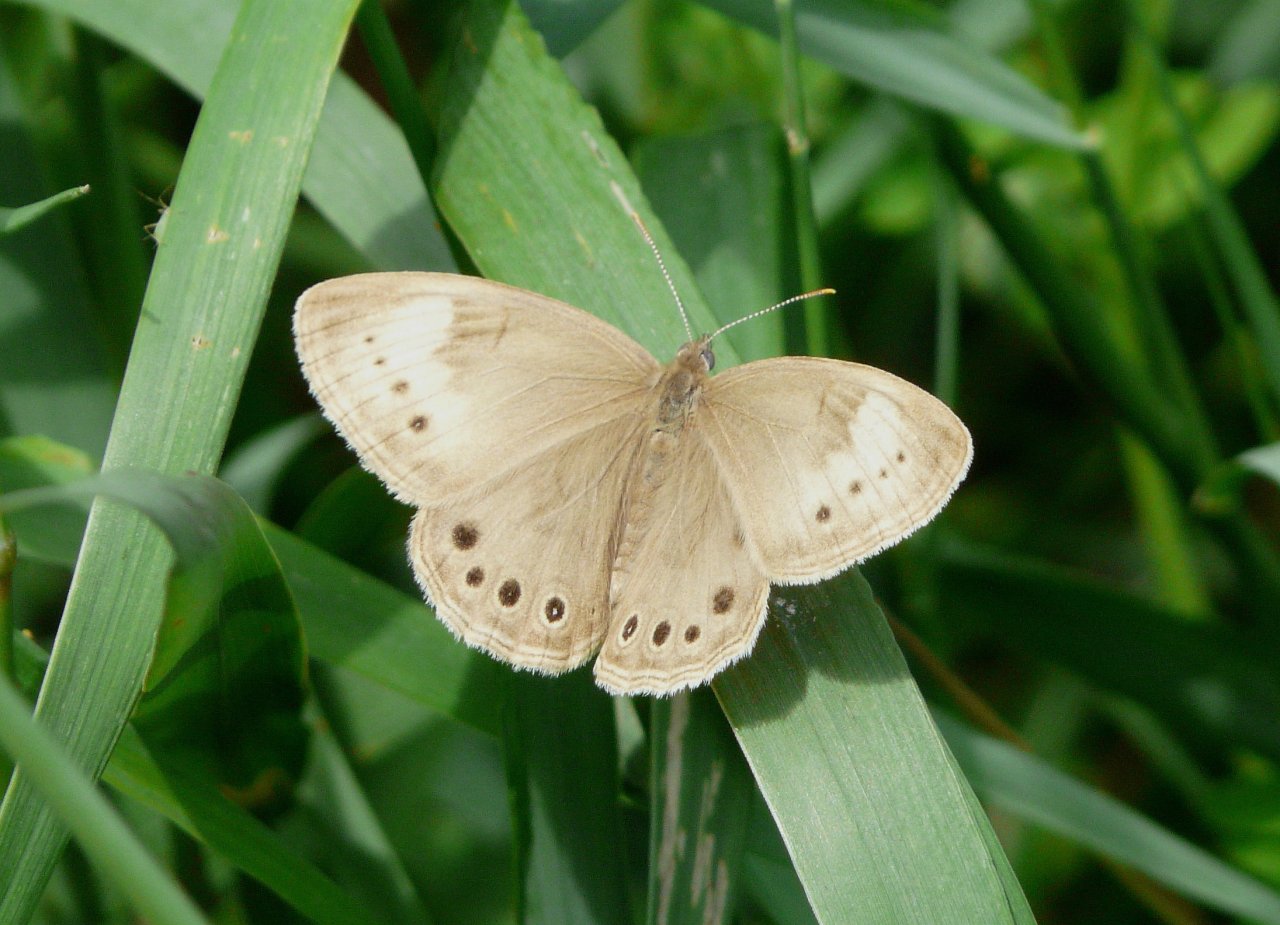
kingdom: Animalia
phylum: Arthropoda
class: Insecta
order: Lepidoptera
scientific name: Lepidoptera
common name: Butterflies
